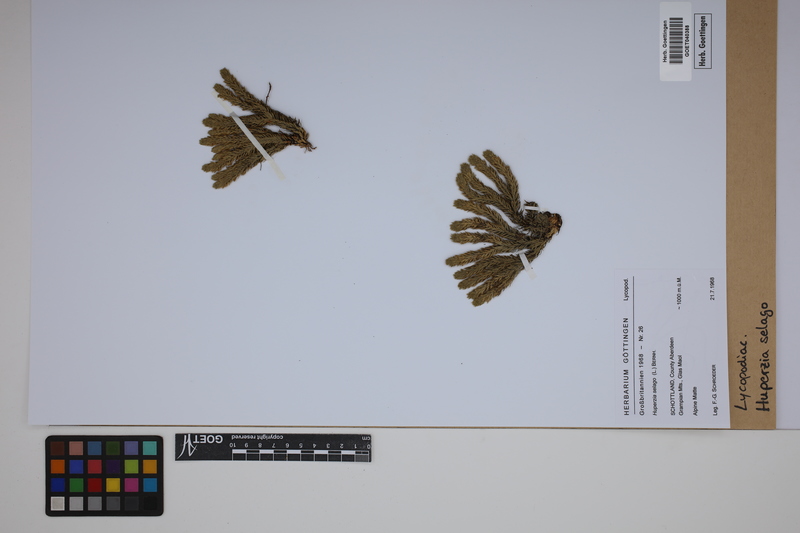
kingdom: Plantae
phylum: Tracheophyta
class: Lycopodiopsida
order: Lycopodiales
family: Lycopodiaceae
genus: Huperzia
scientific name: Huperzia selago
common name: Northern firmoss
